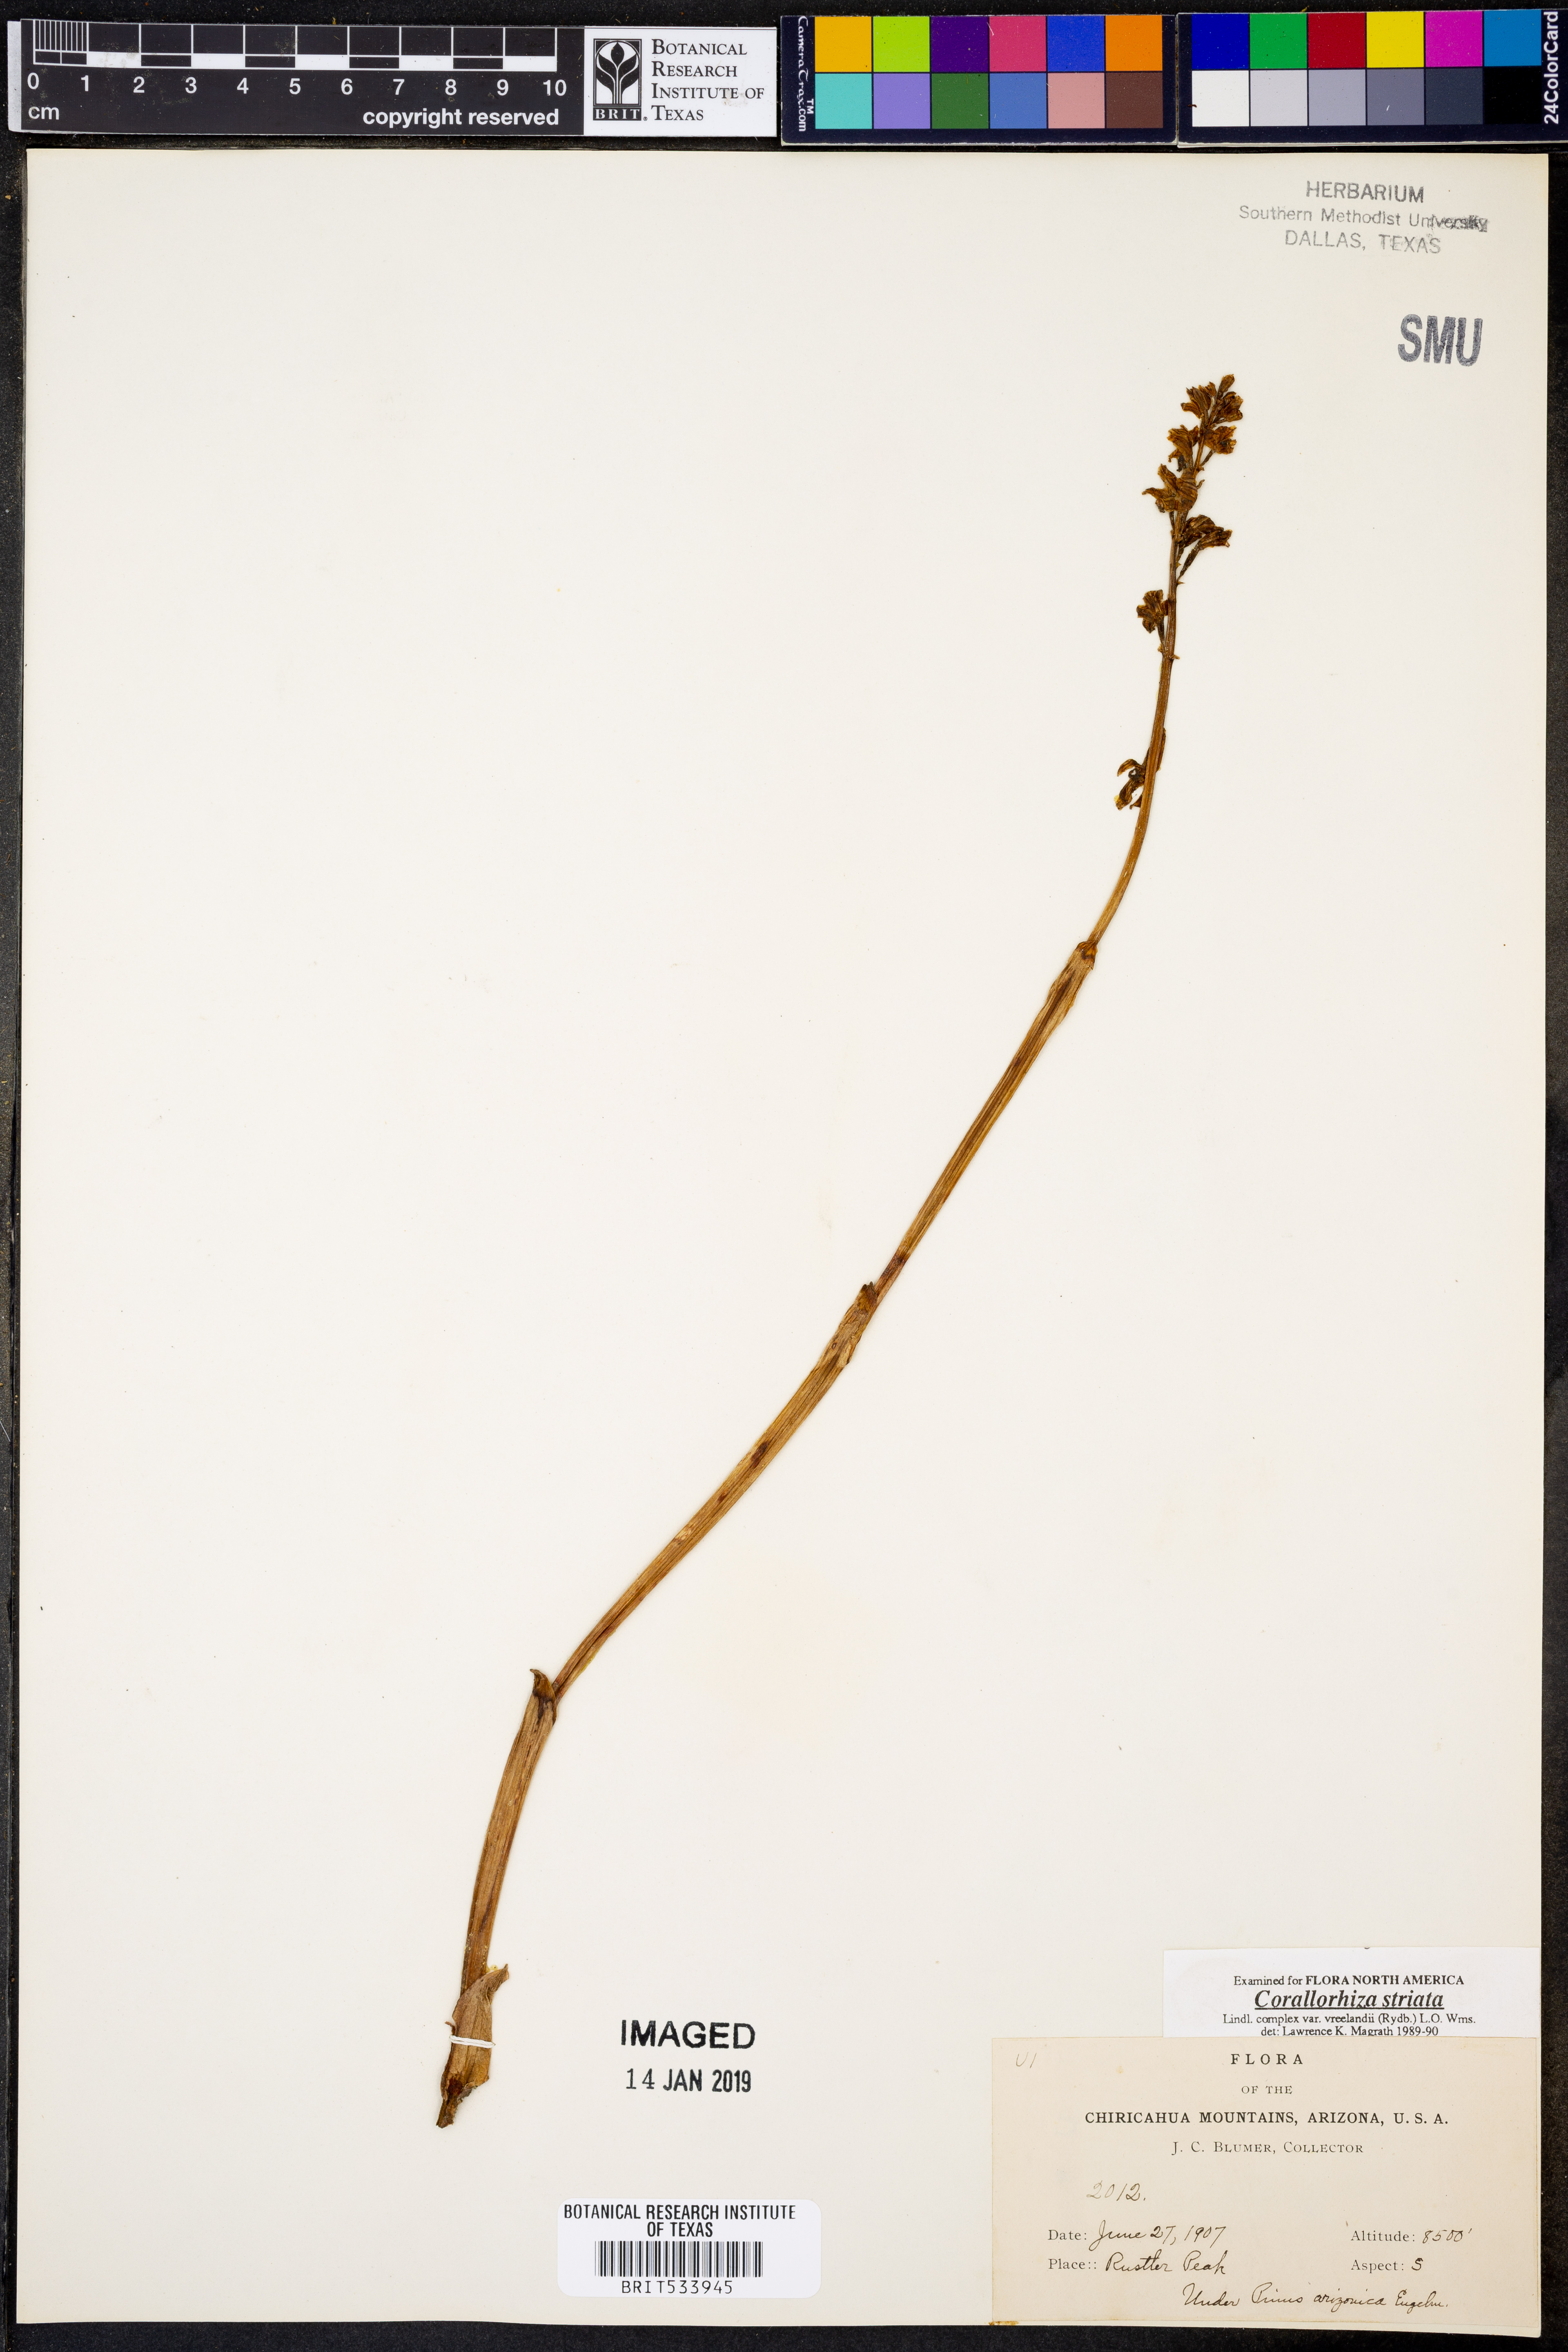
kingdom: Plantae
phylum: Tracheophyta
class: Liliopsida
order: Asparagales
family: Orchidaceae
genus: Corallorhiza
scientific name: Corallorhiza striata
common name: Hooded coralroot
